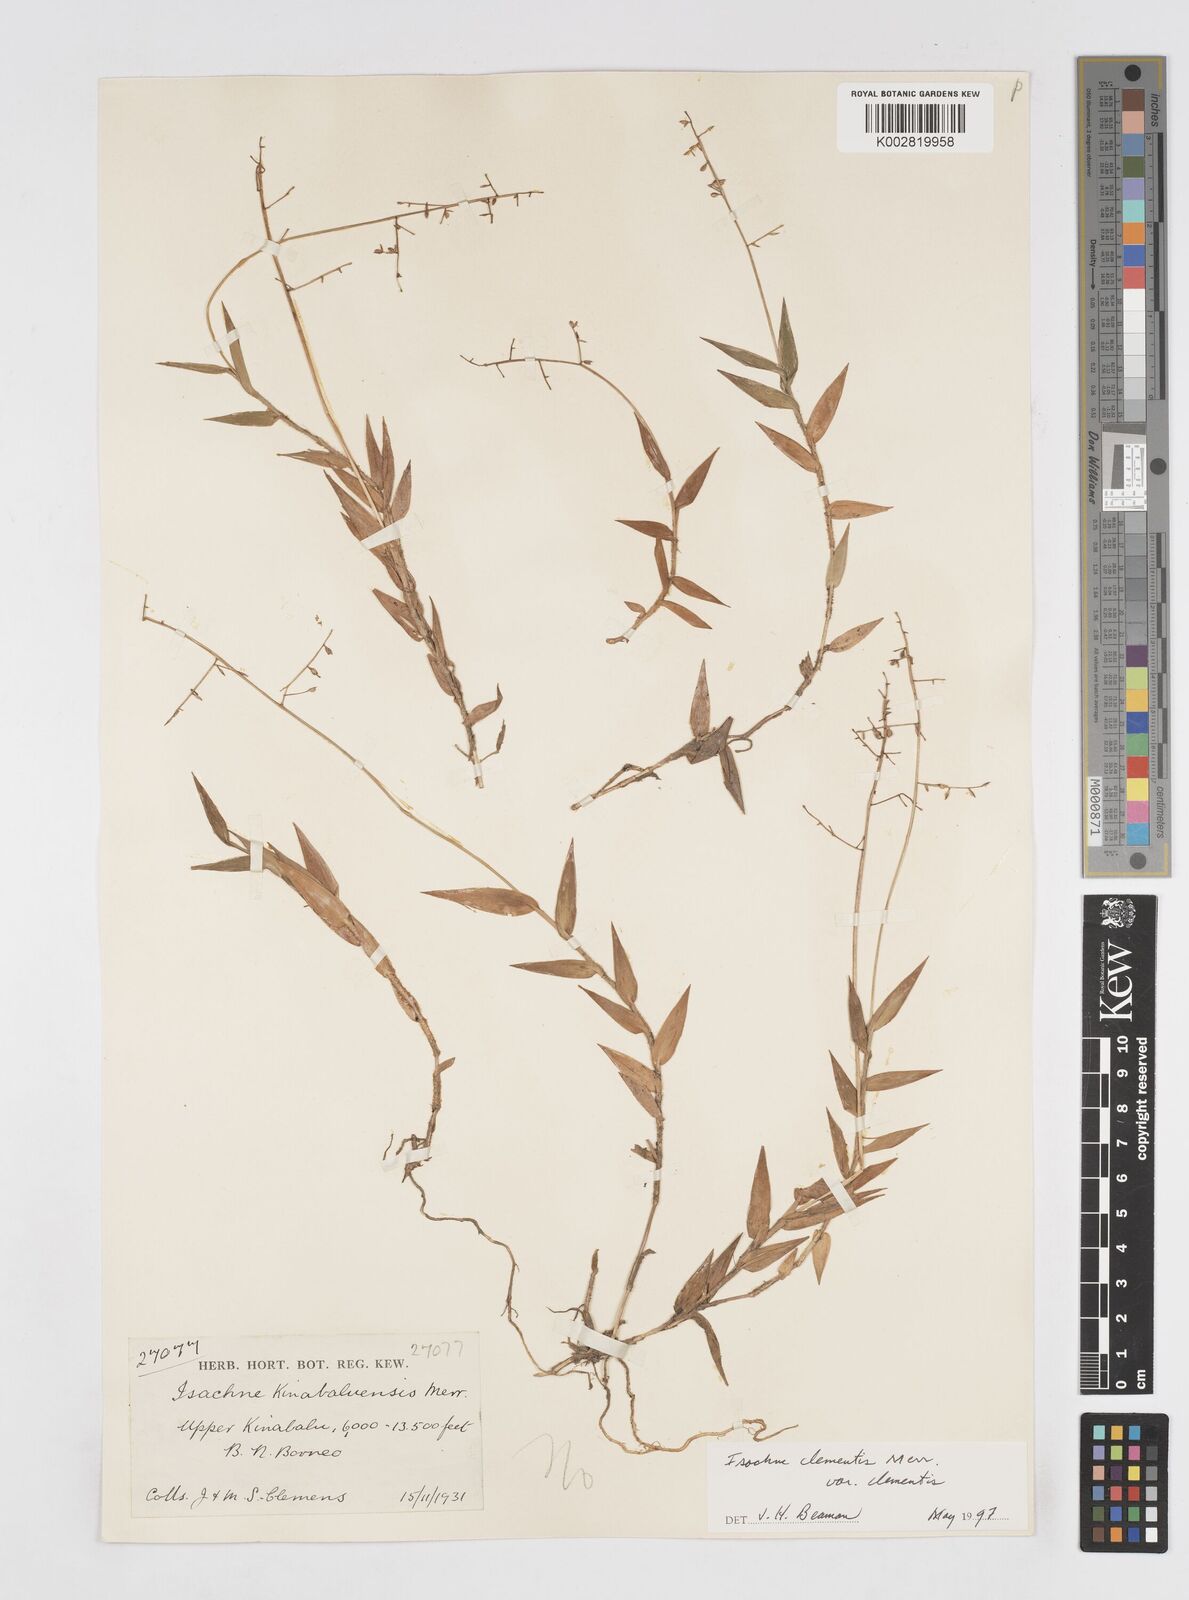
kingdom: Plantae
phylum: Tracheophyta
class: Liliopsida
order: Poales
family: Poaceae
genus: Isachne
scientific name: Isachne clementis
